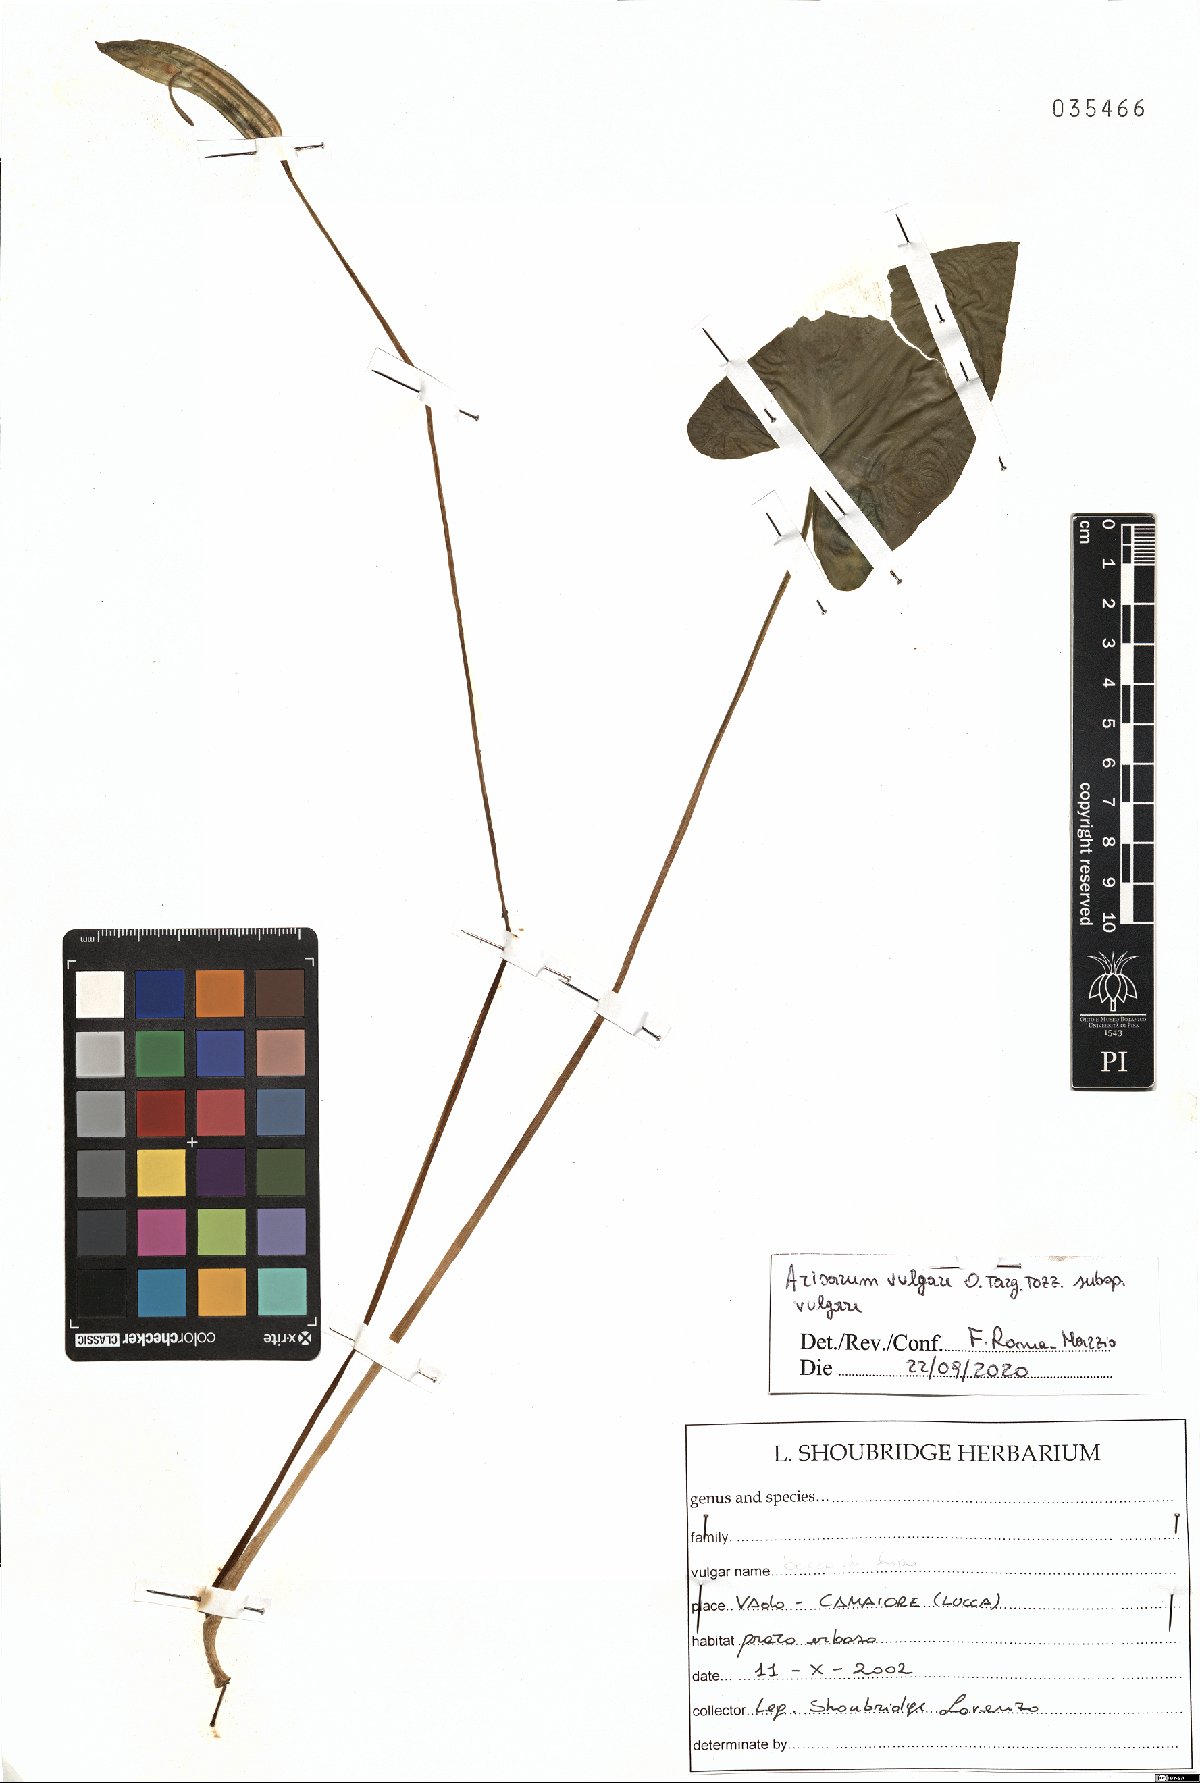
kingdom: Plantae
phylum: Tracheophyta
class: Liliopsida
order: Alismatales
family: Araceae
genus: Arisarum
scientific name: Arisarum vulgare
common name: Common arisarum
